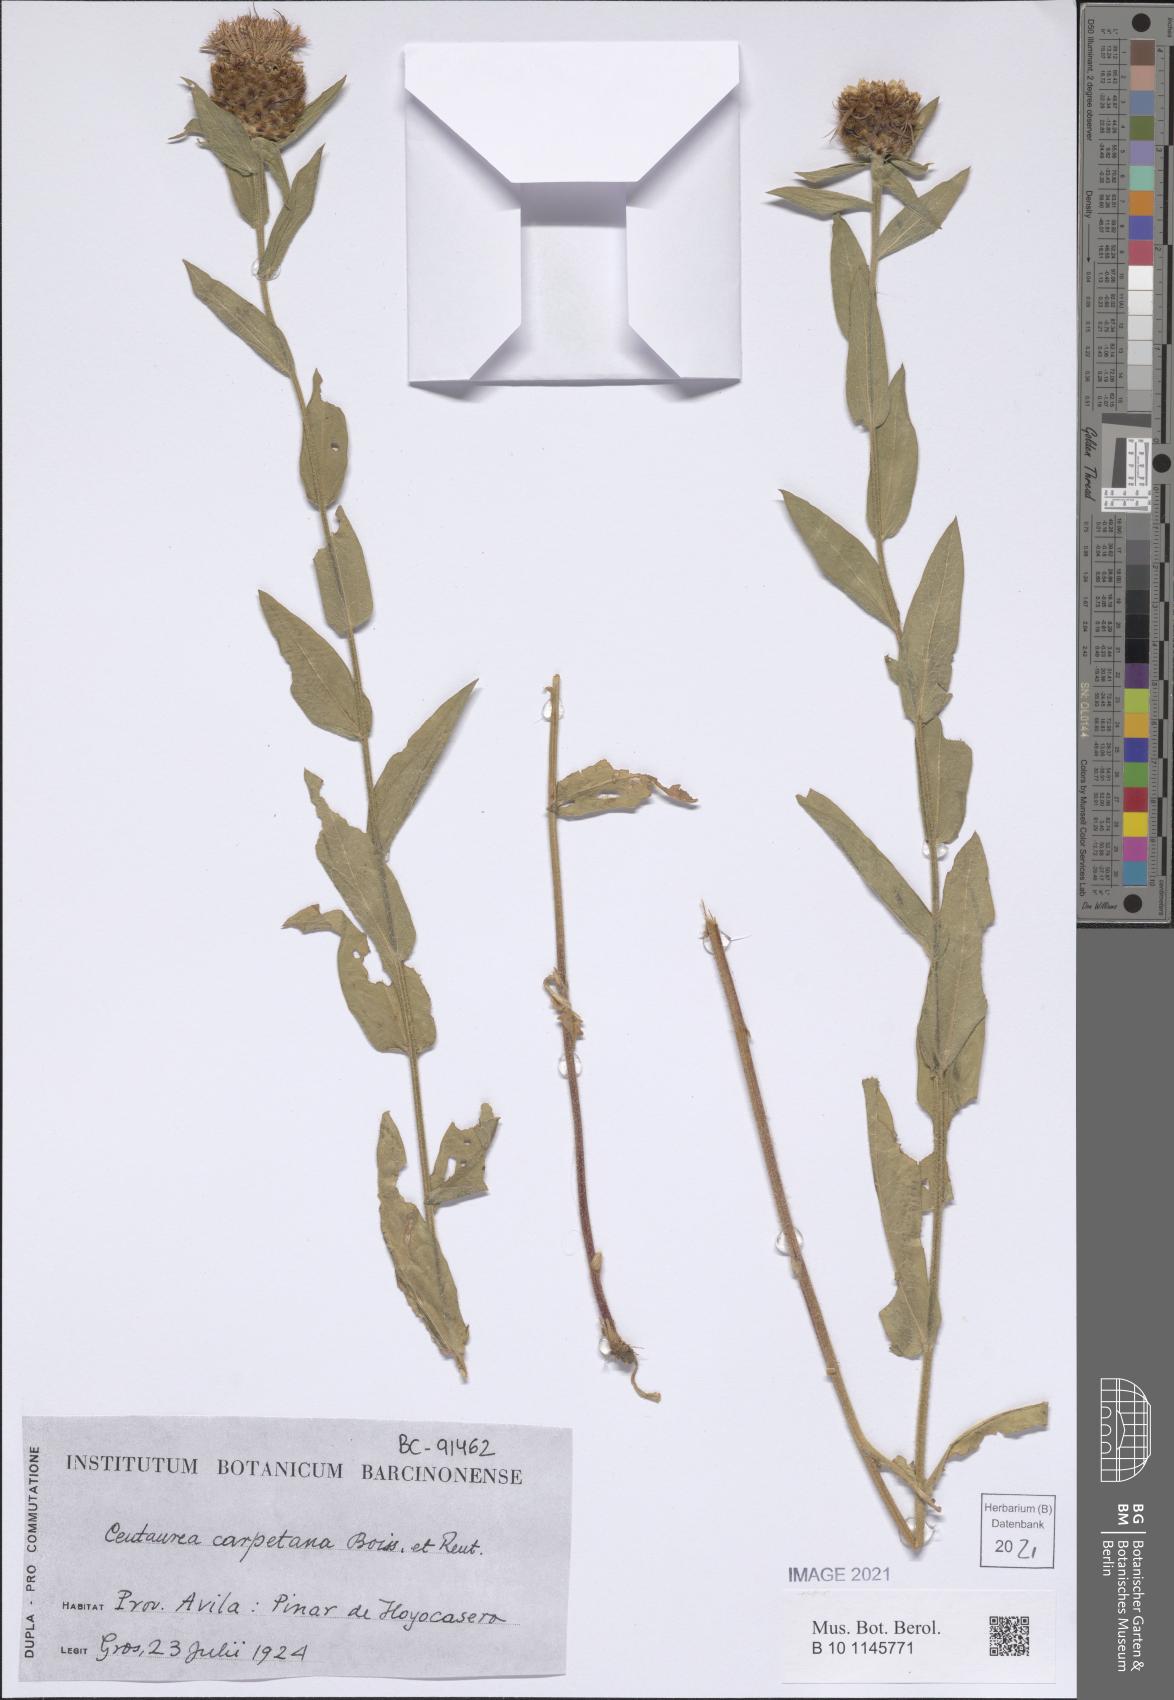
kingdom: Plantae
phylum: Tracheophyta
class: Magnoliopsida
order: Asterales
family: Asteraceae
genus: Centaurea
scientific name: Centaurea nigra
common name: Lesser knapweed
